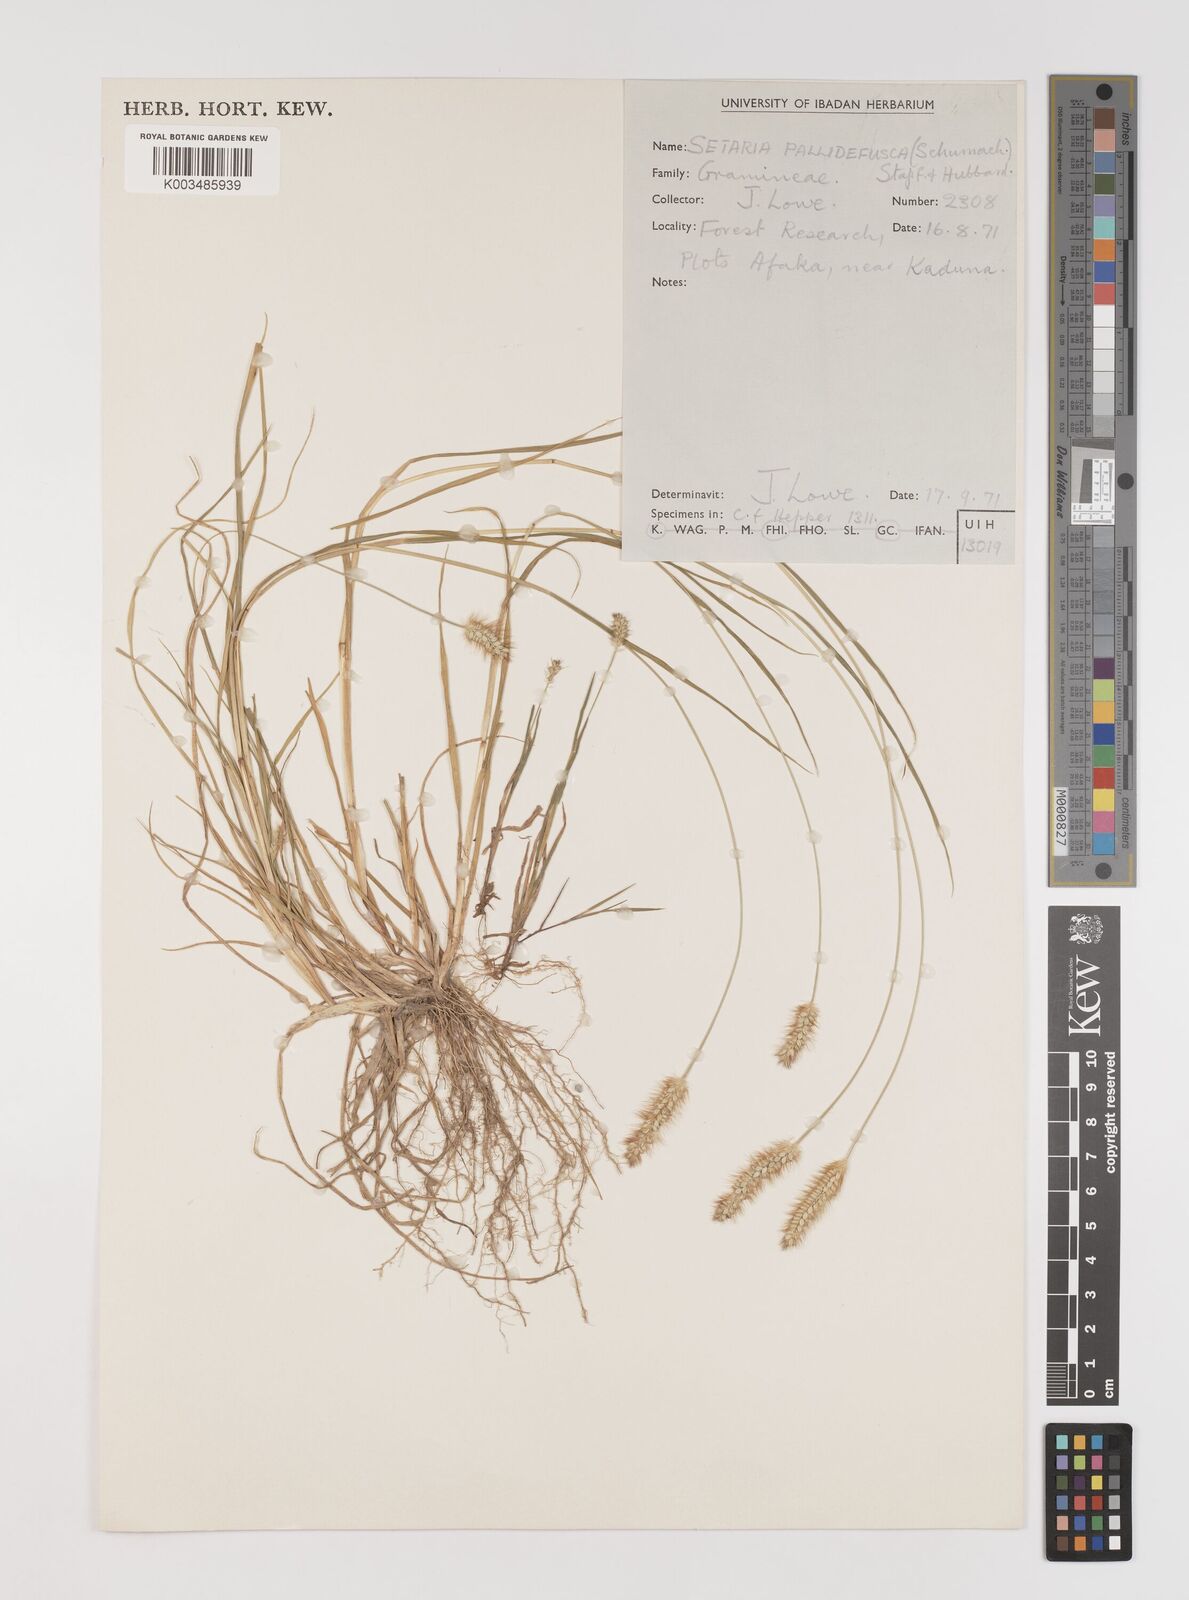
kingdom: Plantae
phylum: Tracheophyta
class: Liliopsida
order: Poales
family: Poaceae
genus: Setaria
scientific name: Setaria pumila
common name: Yellow bristle-grass
